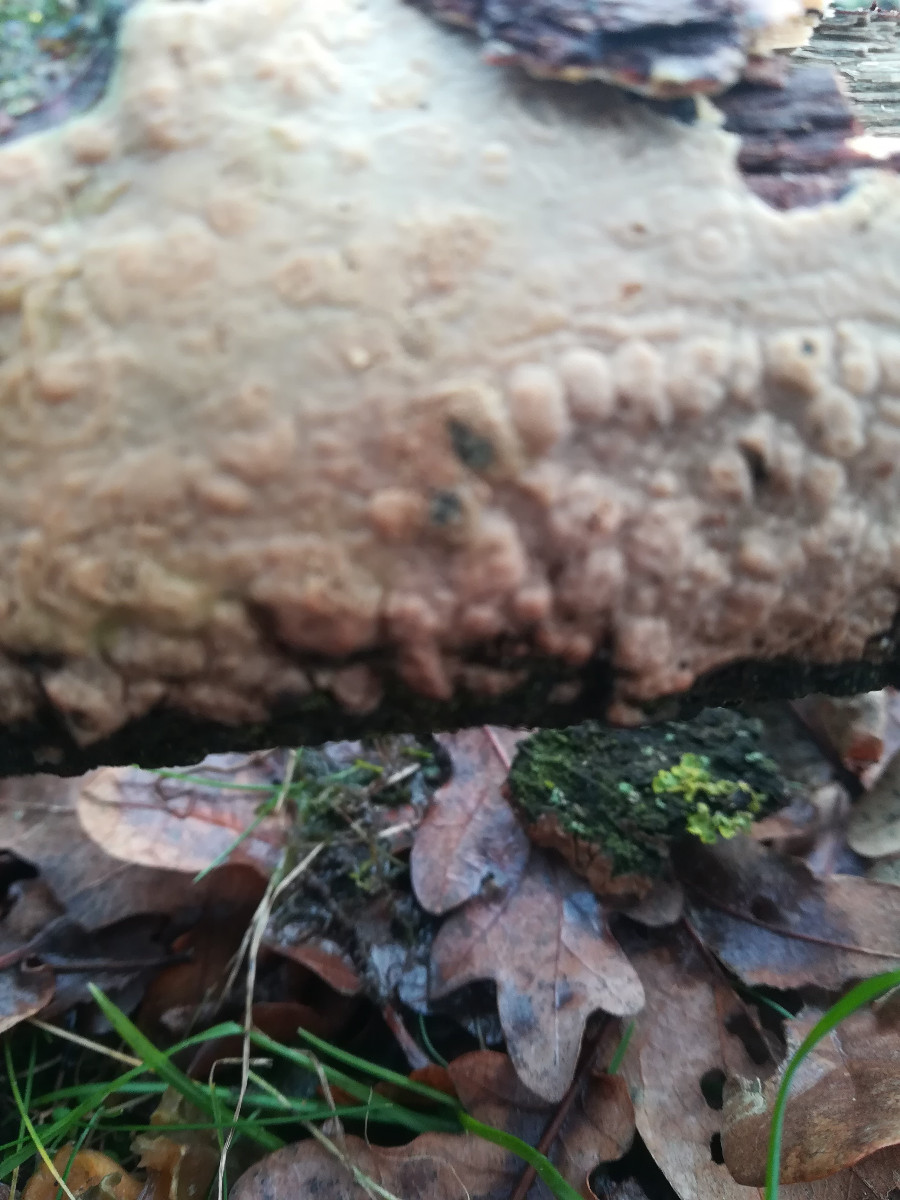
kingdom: Fungi
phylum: Basidiomycota
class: Agaricomycetes
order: Corticiales
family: Corticiaceae
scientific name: Corticiaceae
